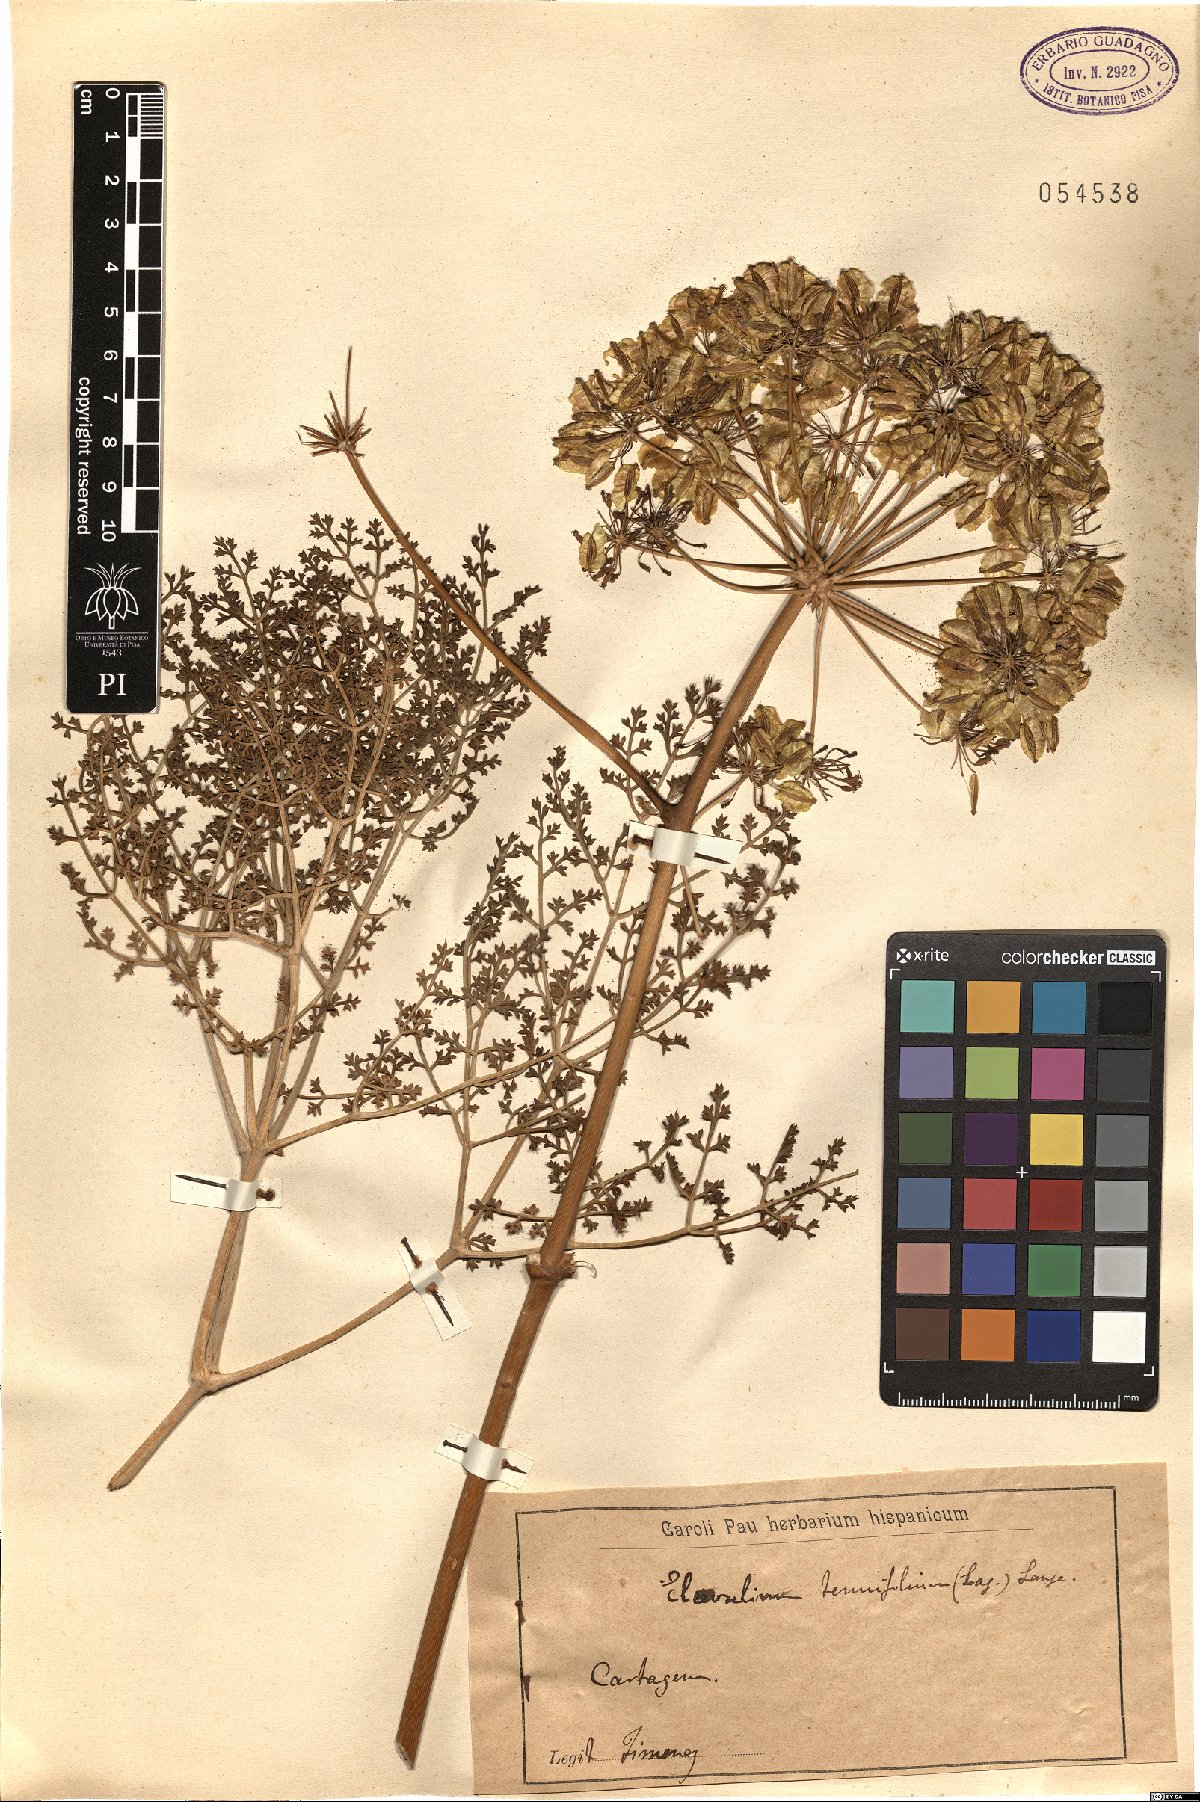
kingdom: Plantae
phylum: Tracheophyta
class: Magnoliopsida
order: Apiales
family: Apiaceae
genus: Thapsia
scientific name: Thapsia tenuifolia
